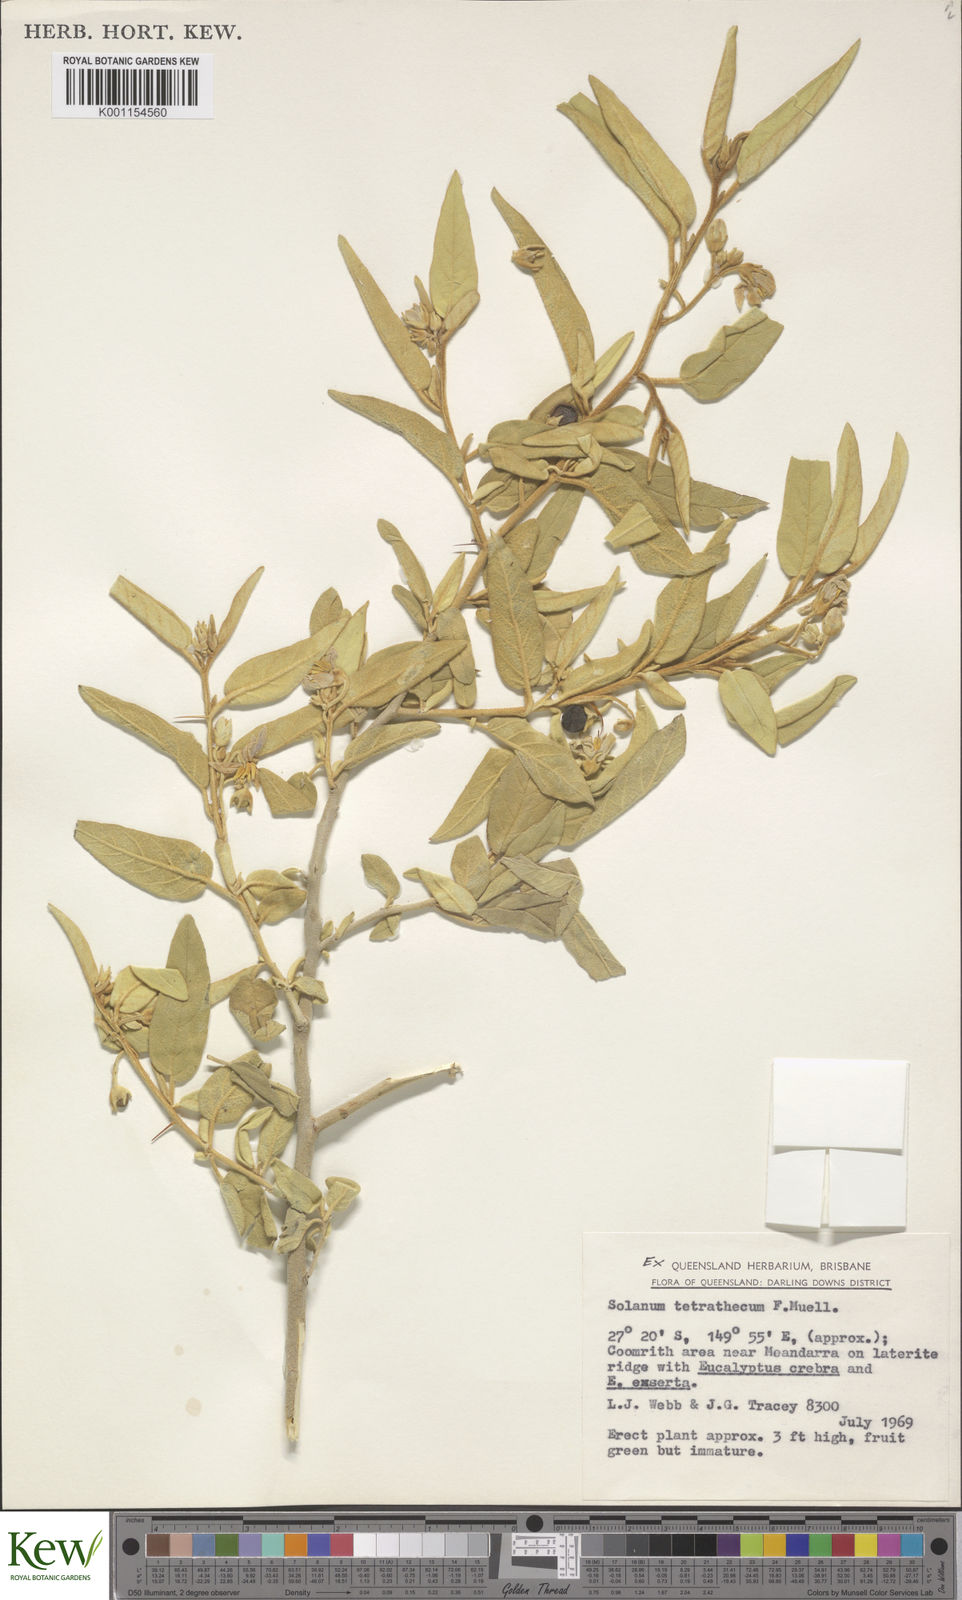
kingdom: Plantae
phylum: Tracheophyta
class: Magnoliopsida
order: Solanales
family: Solanaceae
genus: Solanum
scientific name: Solanum tetrathecum
